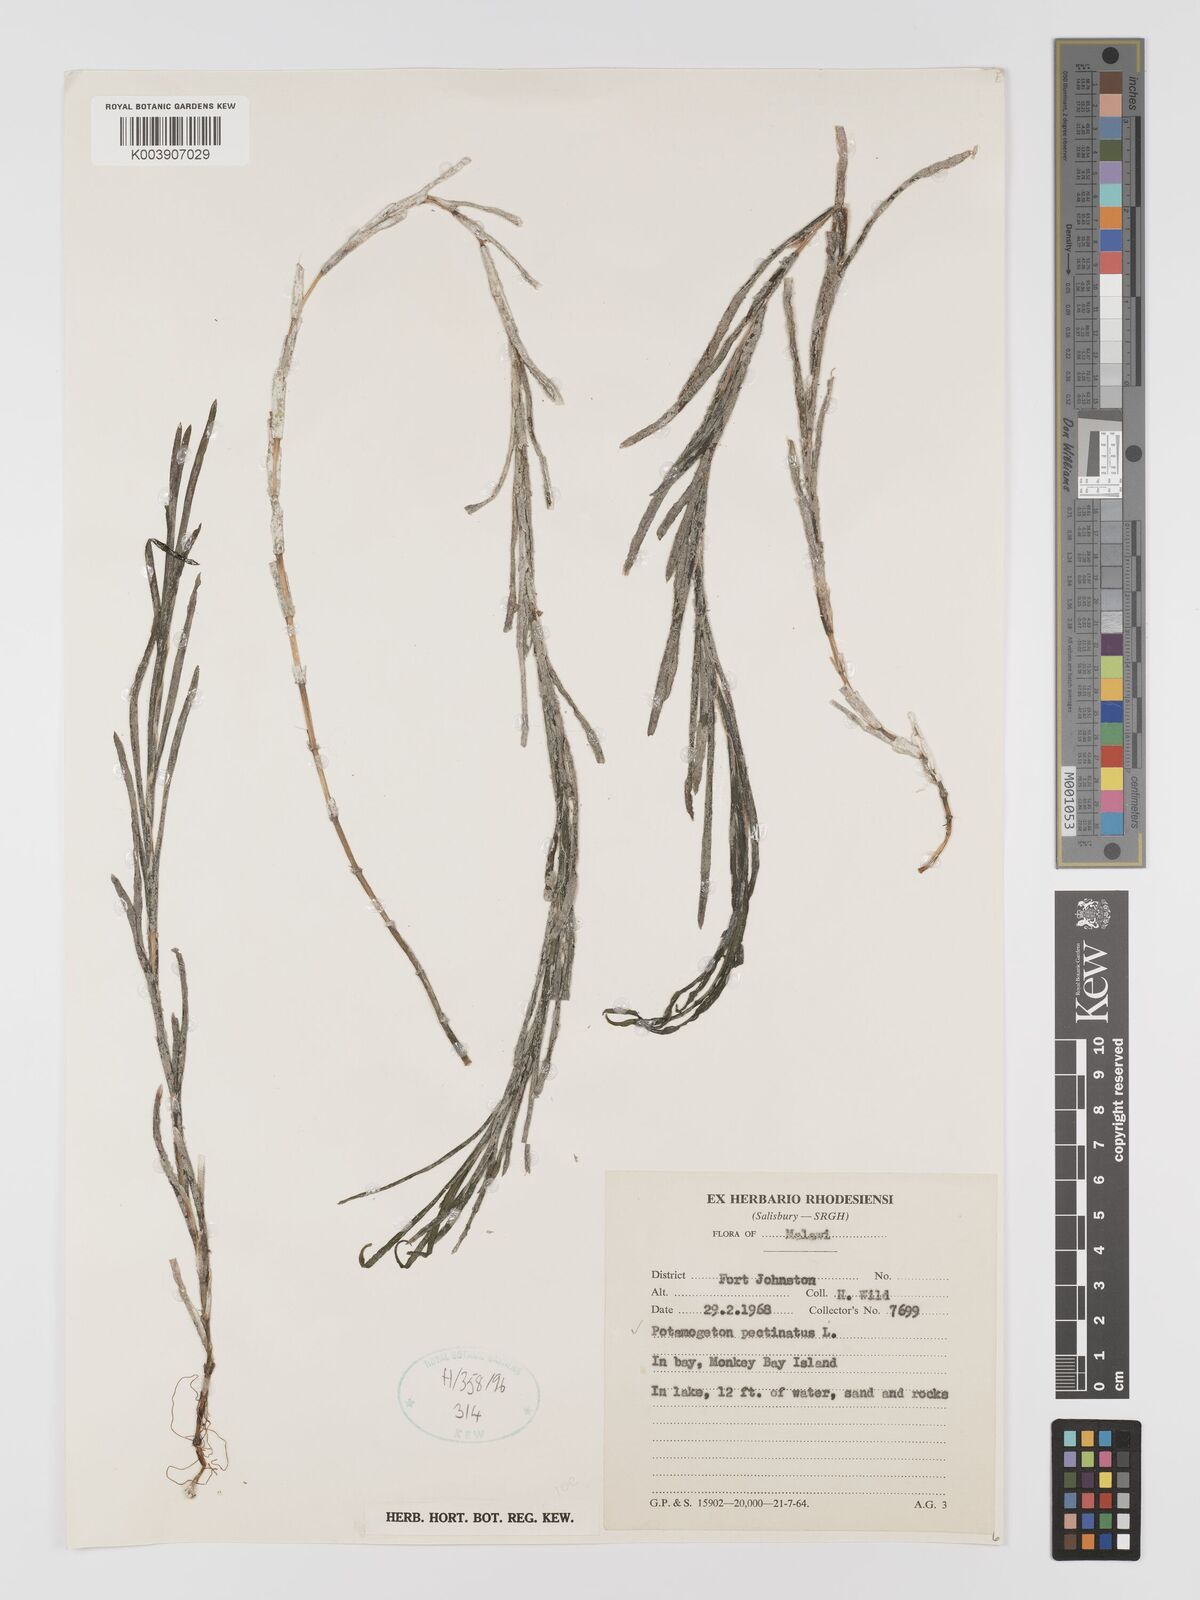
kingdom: Plantae
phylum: Tracheophyta
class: Liliopsida
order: Alismatales
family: Potamogetonaceae
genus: Stuckenia
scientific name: Stuckenia pectinata
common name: Sago pondweed
